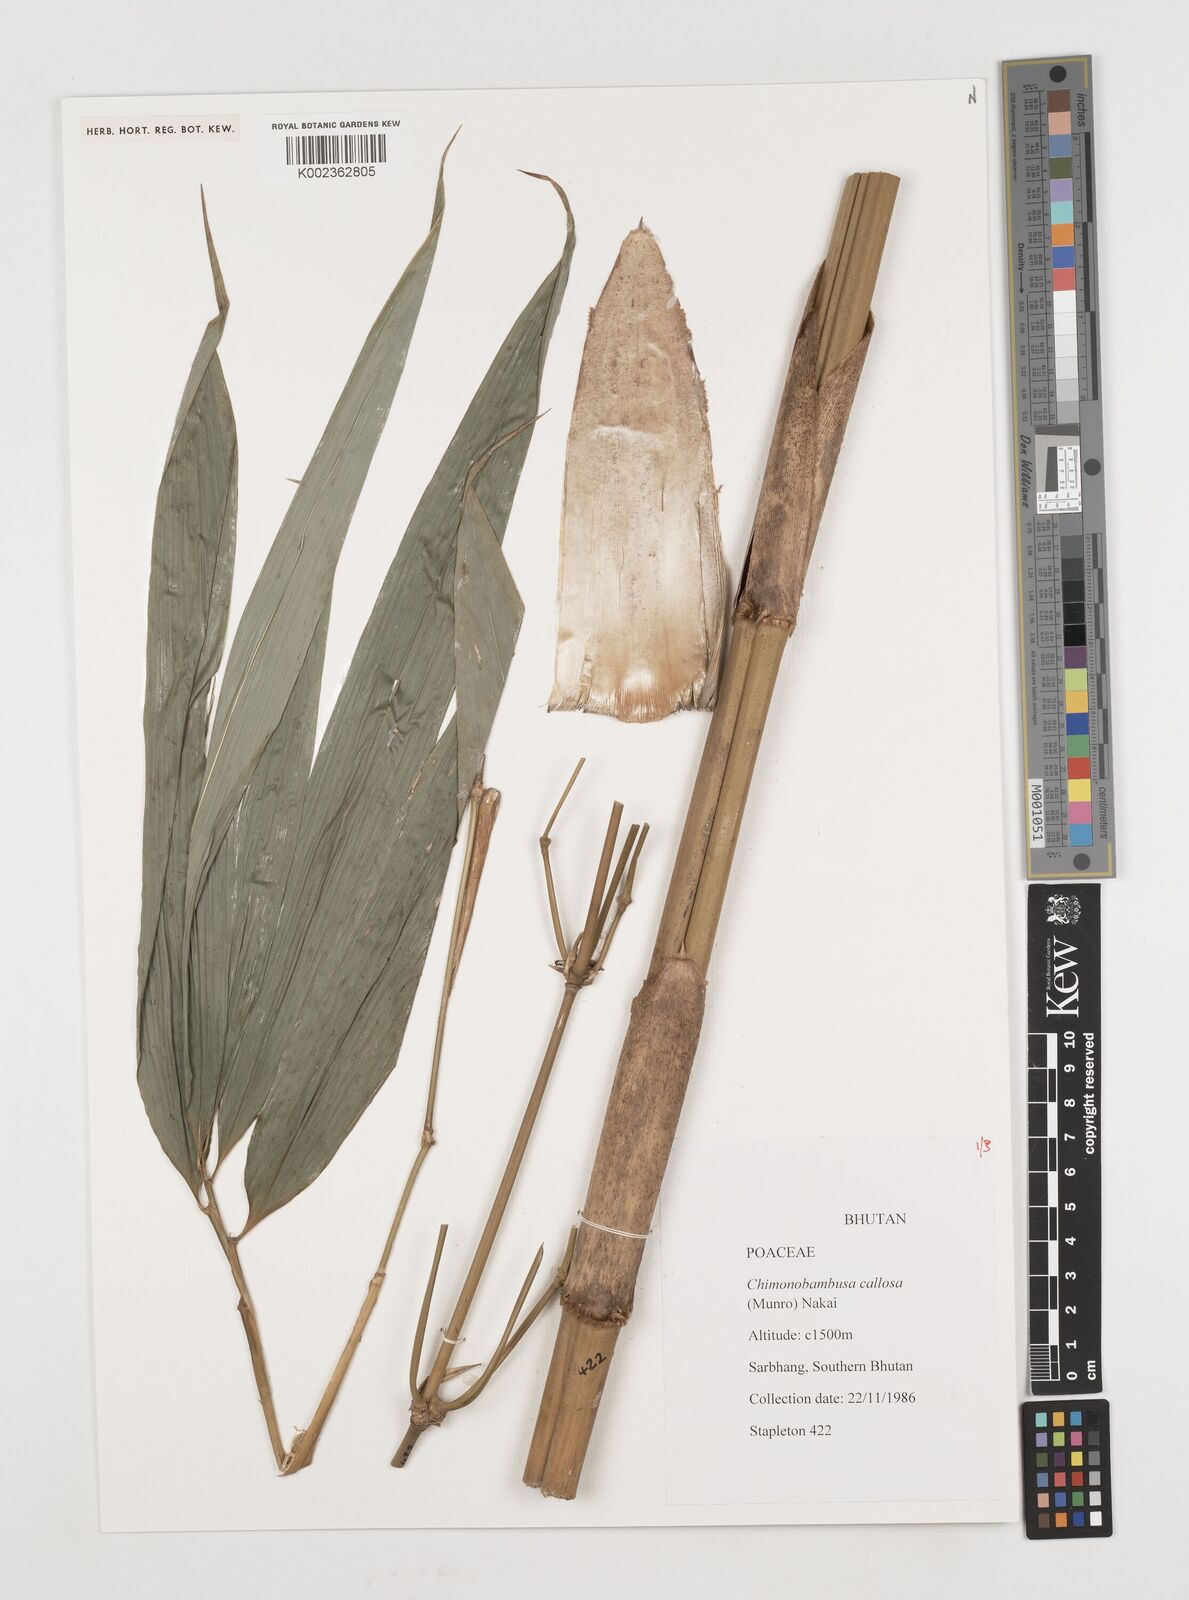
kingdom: Plantae
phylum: Tracheophyta
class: Liliopsida
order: Poales
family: Poaceae
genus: Chimonobambusa
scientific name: Chimonobambusa callosa
